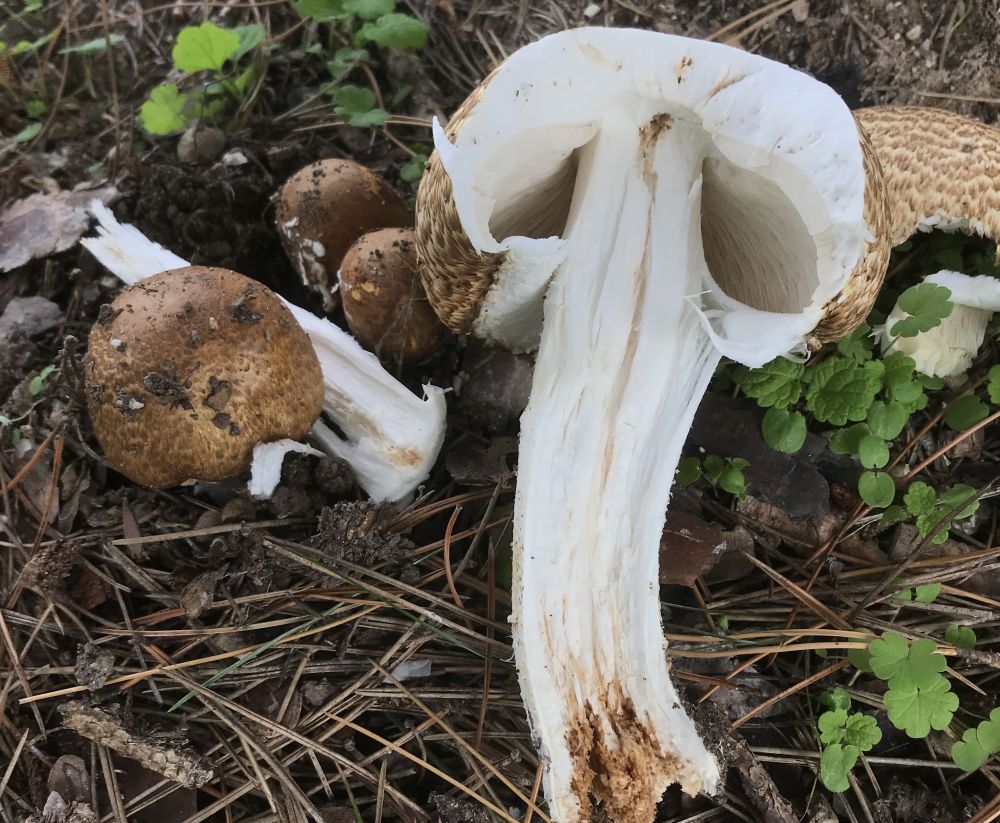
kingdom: Fungi
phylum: Basidiomycota
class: Agaricomycetes
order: Agaricales
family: Agaricaceae
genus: Agaricus
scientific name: Agaricus augustus
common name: prægtig champignon
